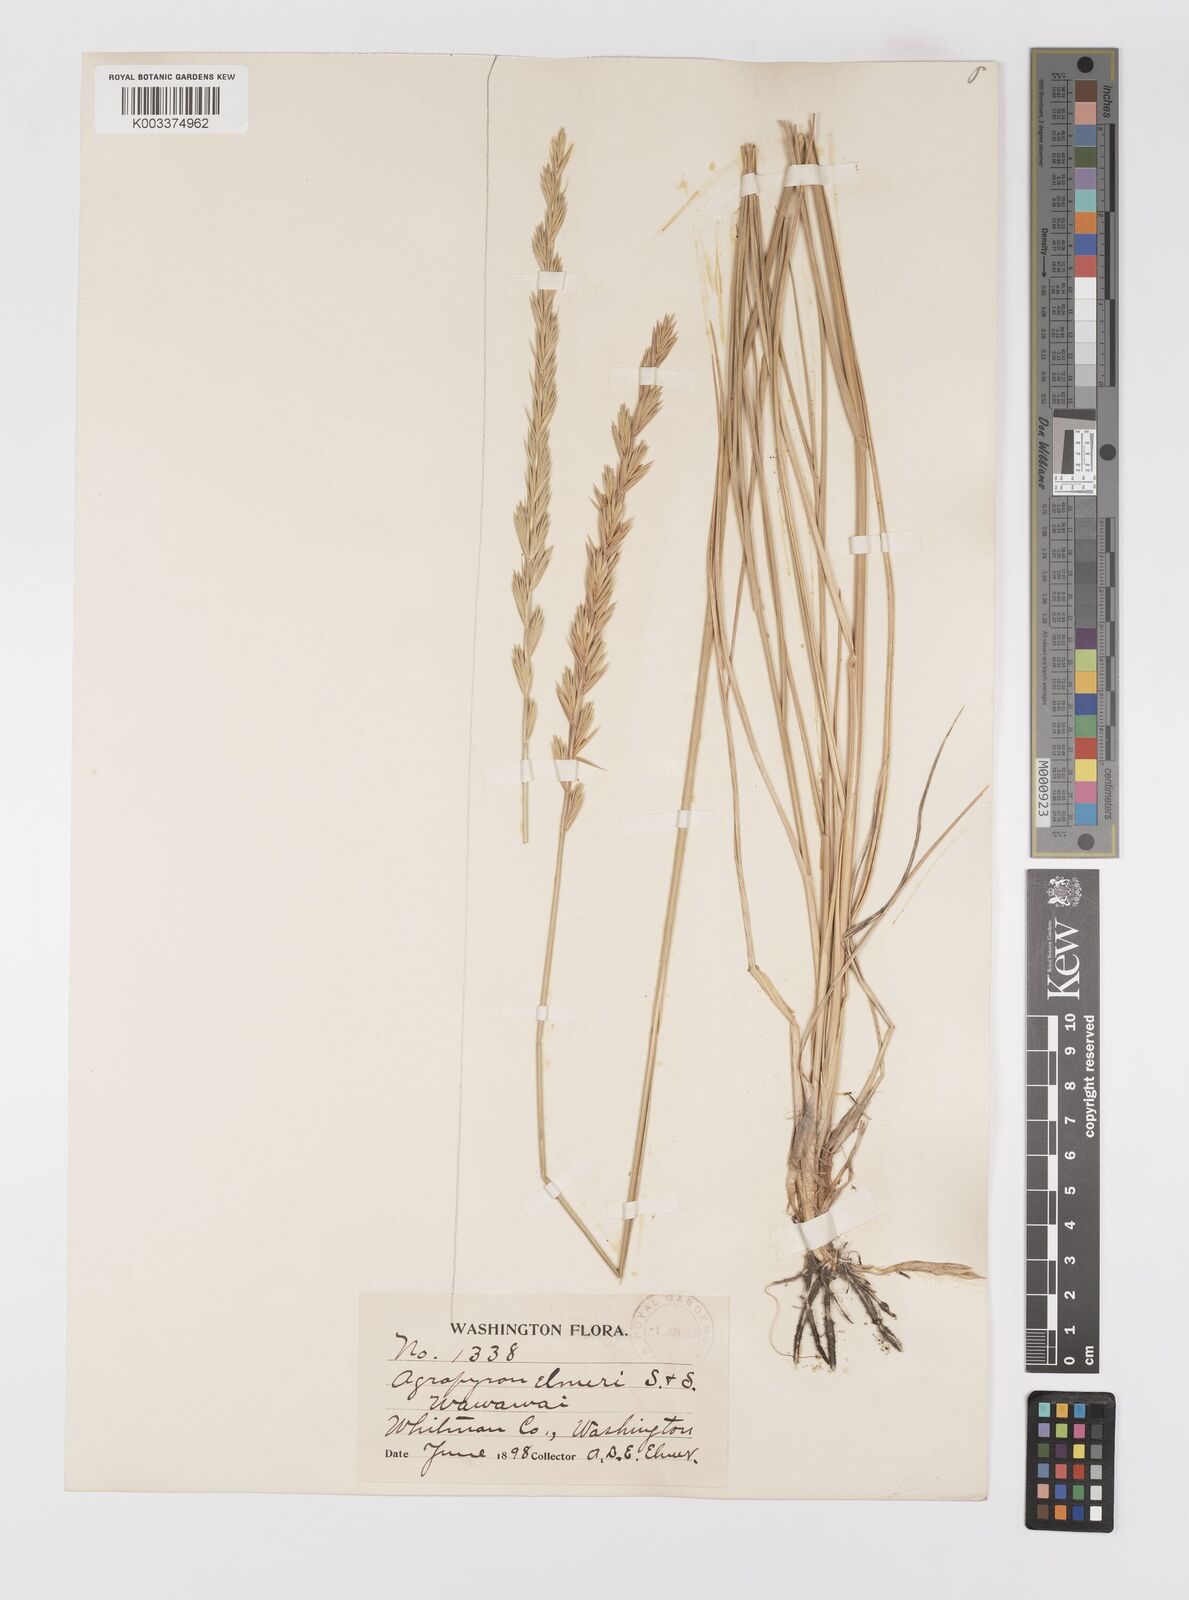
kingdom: Plantae
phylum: Tracheophyta
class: Liliopsida
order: Poales
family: Poaceae
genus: Elymus
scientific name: Elymus lanceolatus
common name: Thick-spike wheatgrass
